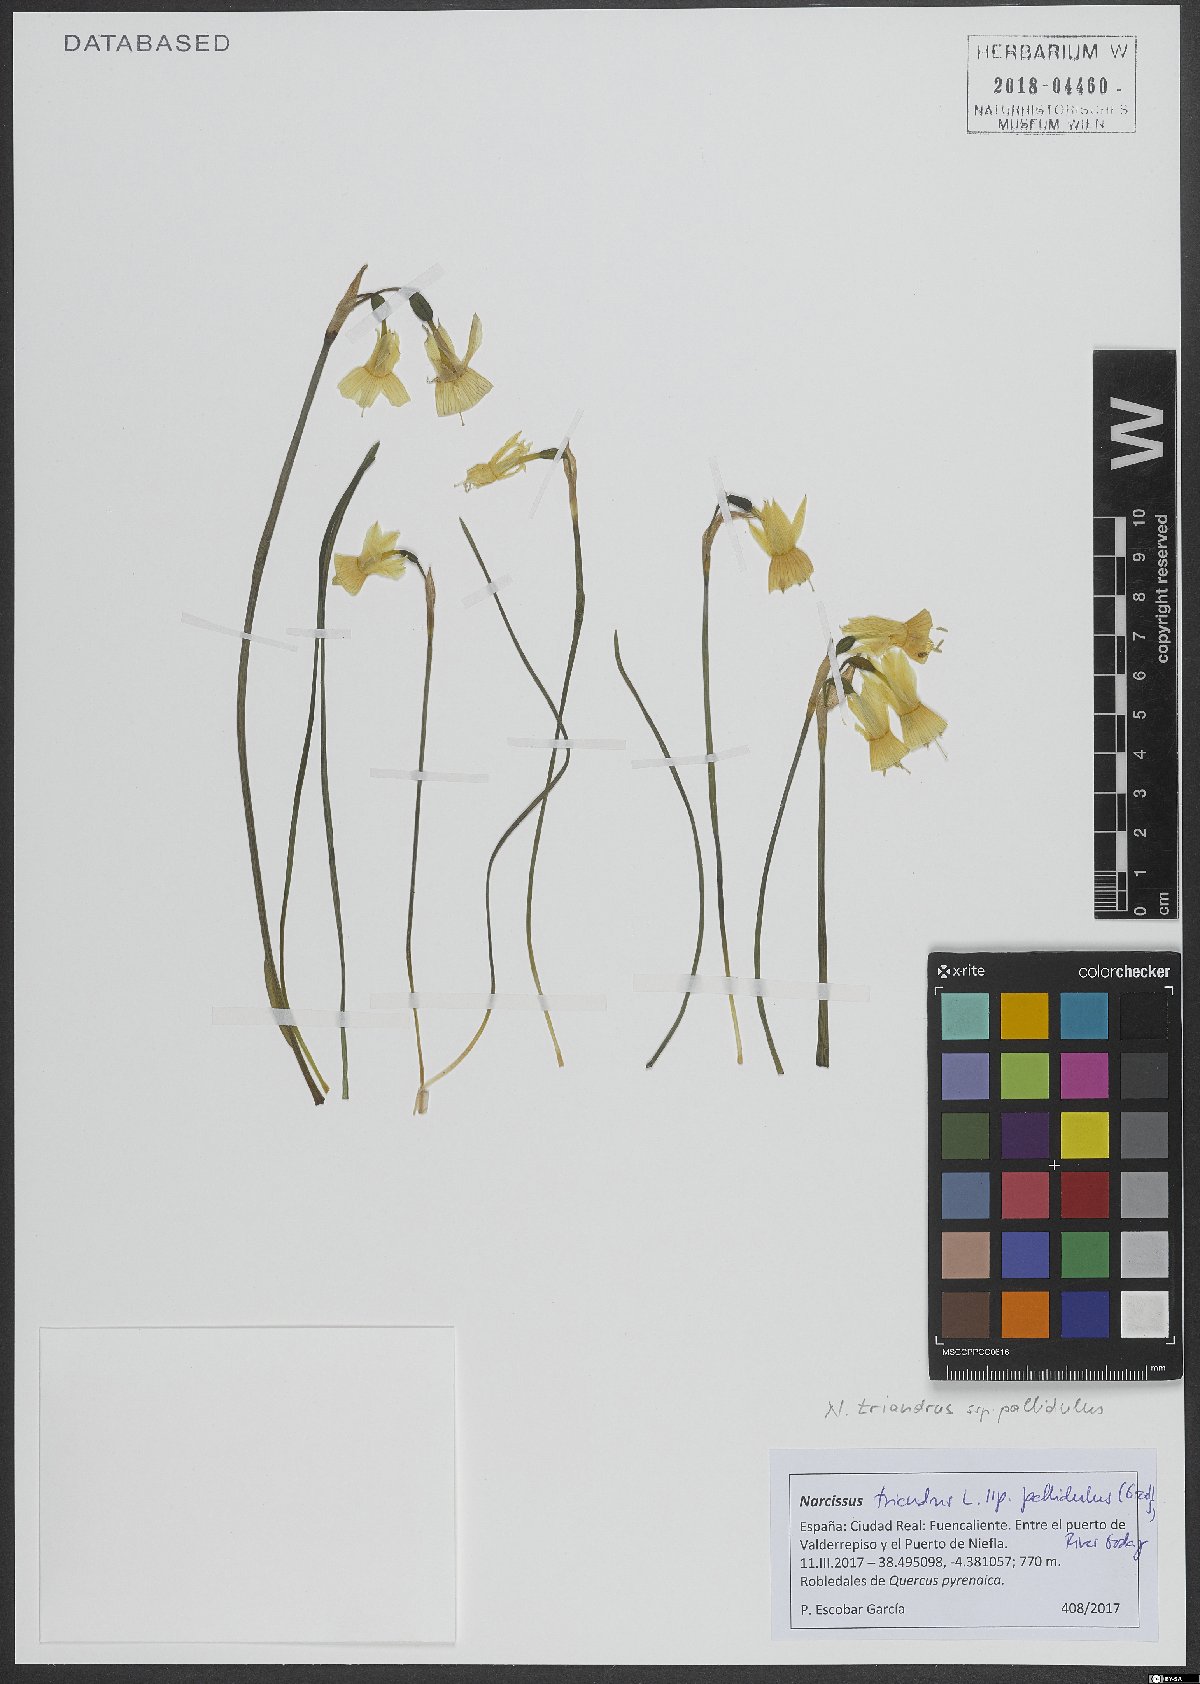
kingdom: Plantae
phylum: Tracheophyta
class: Liliopsida
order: Asparagales
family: Amaryllidaceae
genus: Narcissus
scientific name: Narcissus triandrus
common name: Angel's-tears
